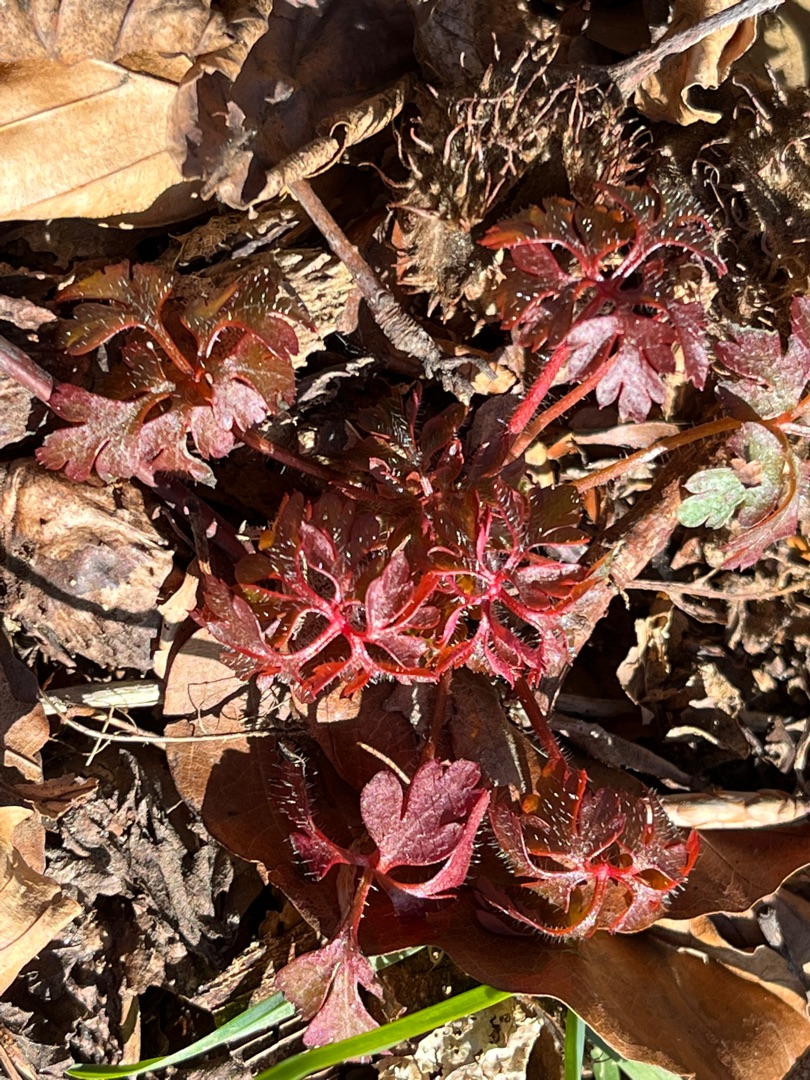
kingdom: Plantae
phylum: Tracheophyta
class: Magnoliopsida
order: Geraniales
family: Geraniaceae
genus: Geranium
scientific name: Geranium robertianum
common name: Stinkende storkenæb
